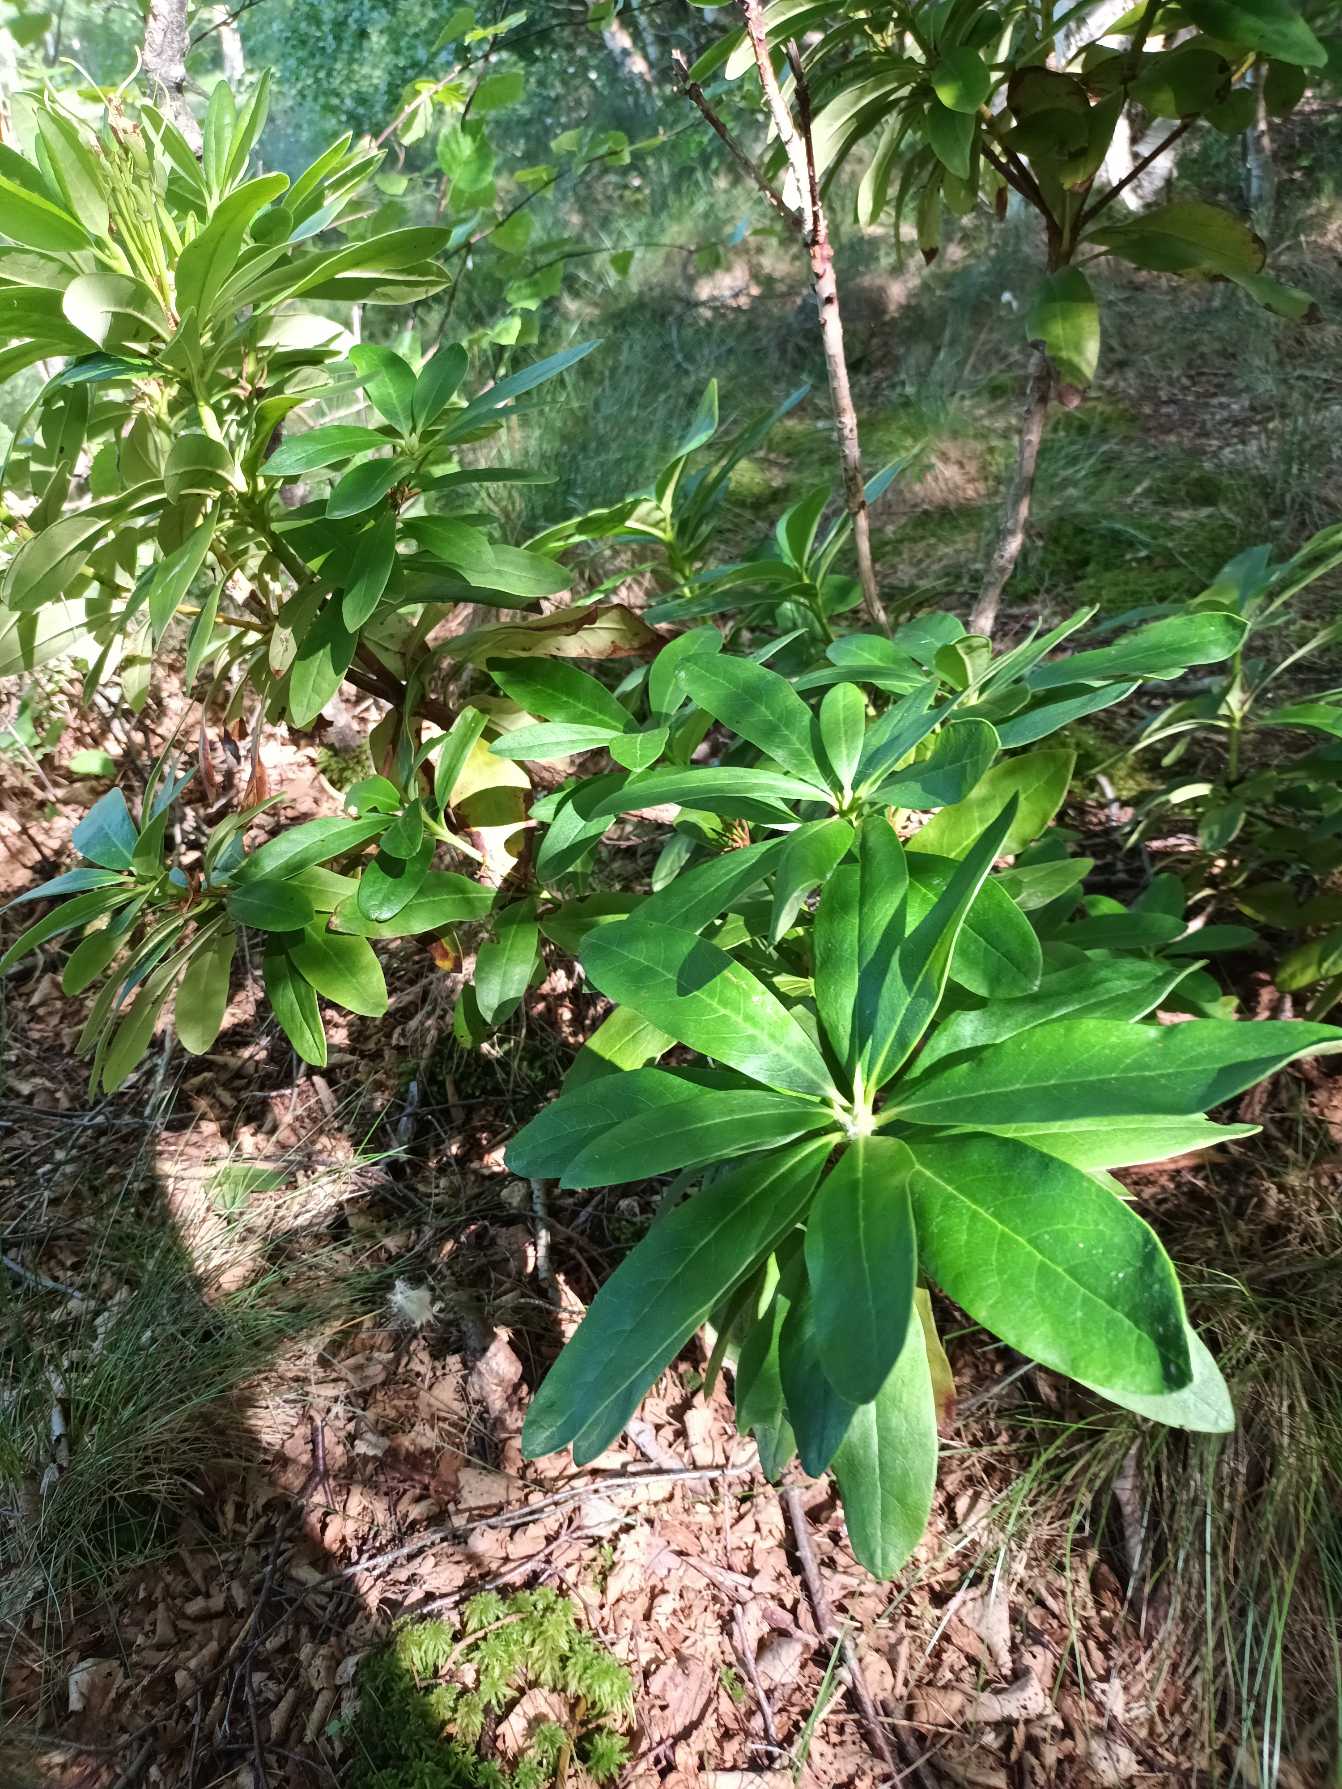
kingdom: Plantae
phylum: Tracheophyta
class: Magnoliopsida
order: Ericales
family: Ericaceae
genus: Rhododendron
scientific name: Rhododendron
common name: Rhododendronslægten
